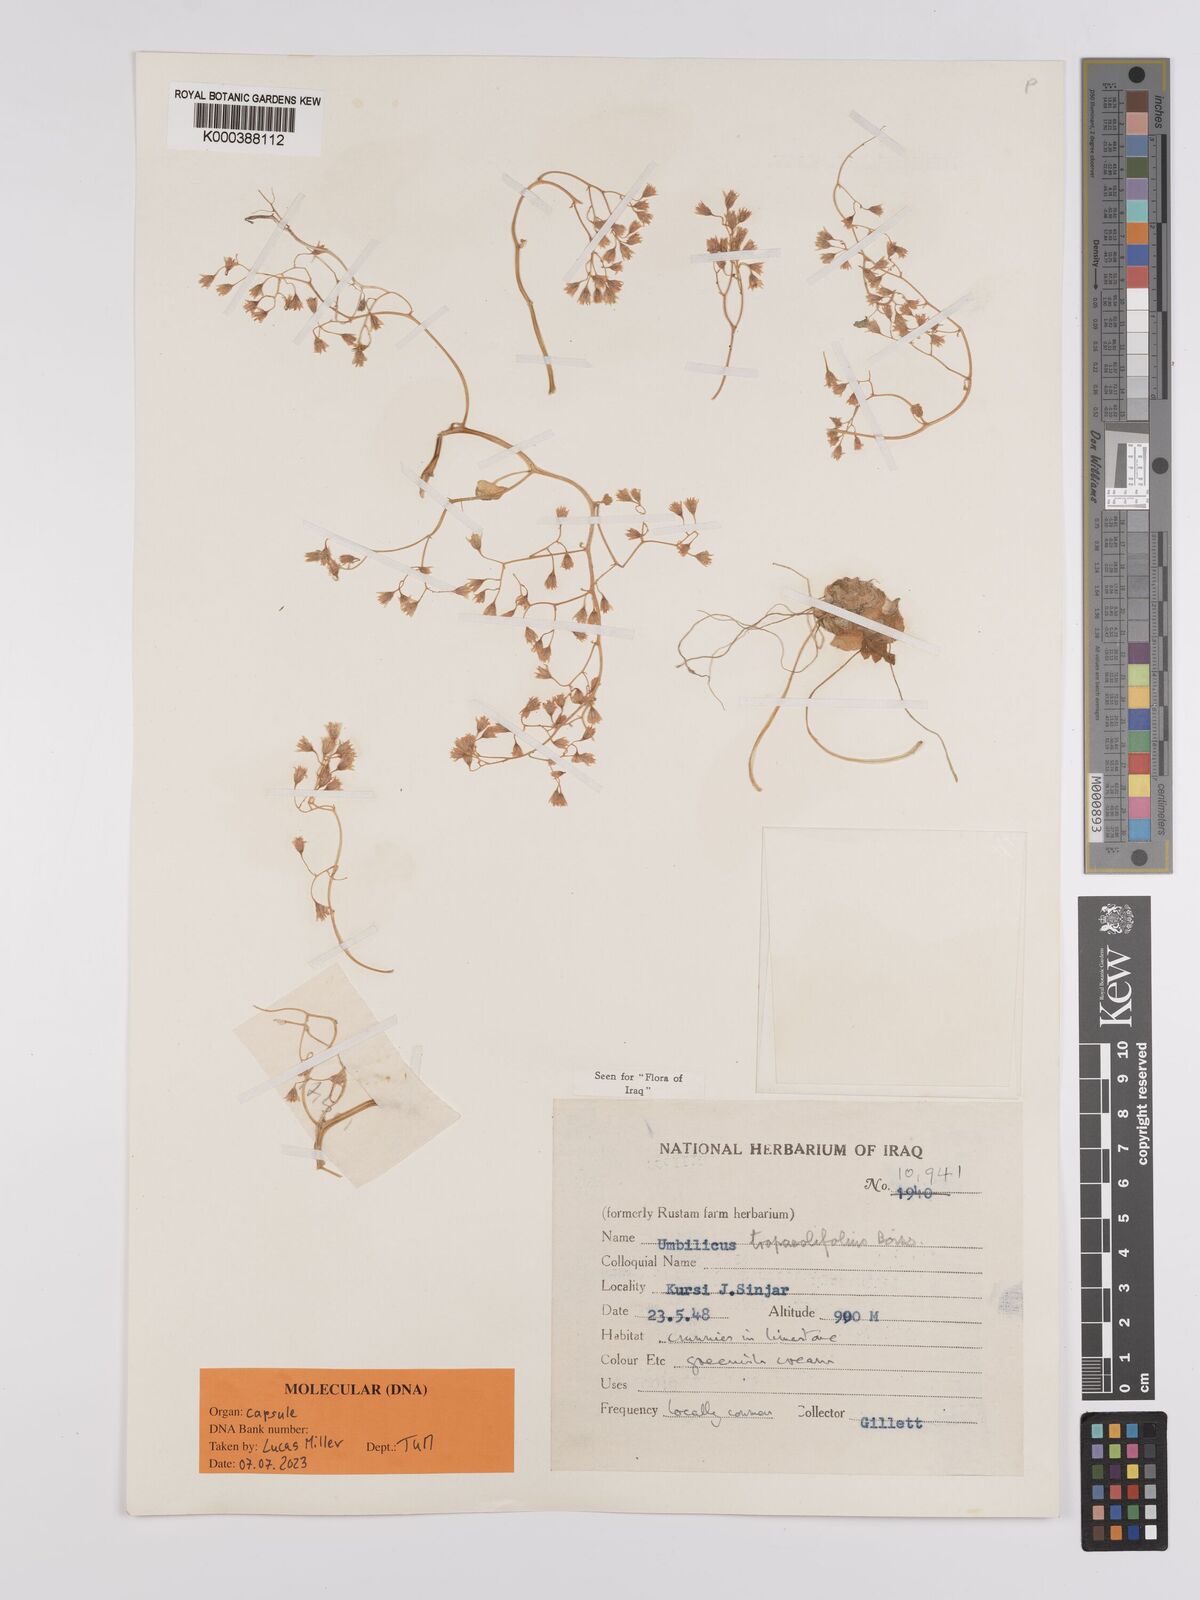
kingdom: Plantae
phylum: Tracheophyta
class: Magnoliopsida
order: Saxifragales
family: Crassulaceae
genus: Umbilicus
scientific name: Umbilicus tropaeolifolius
